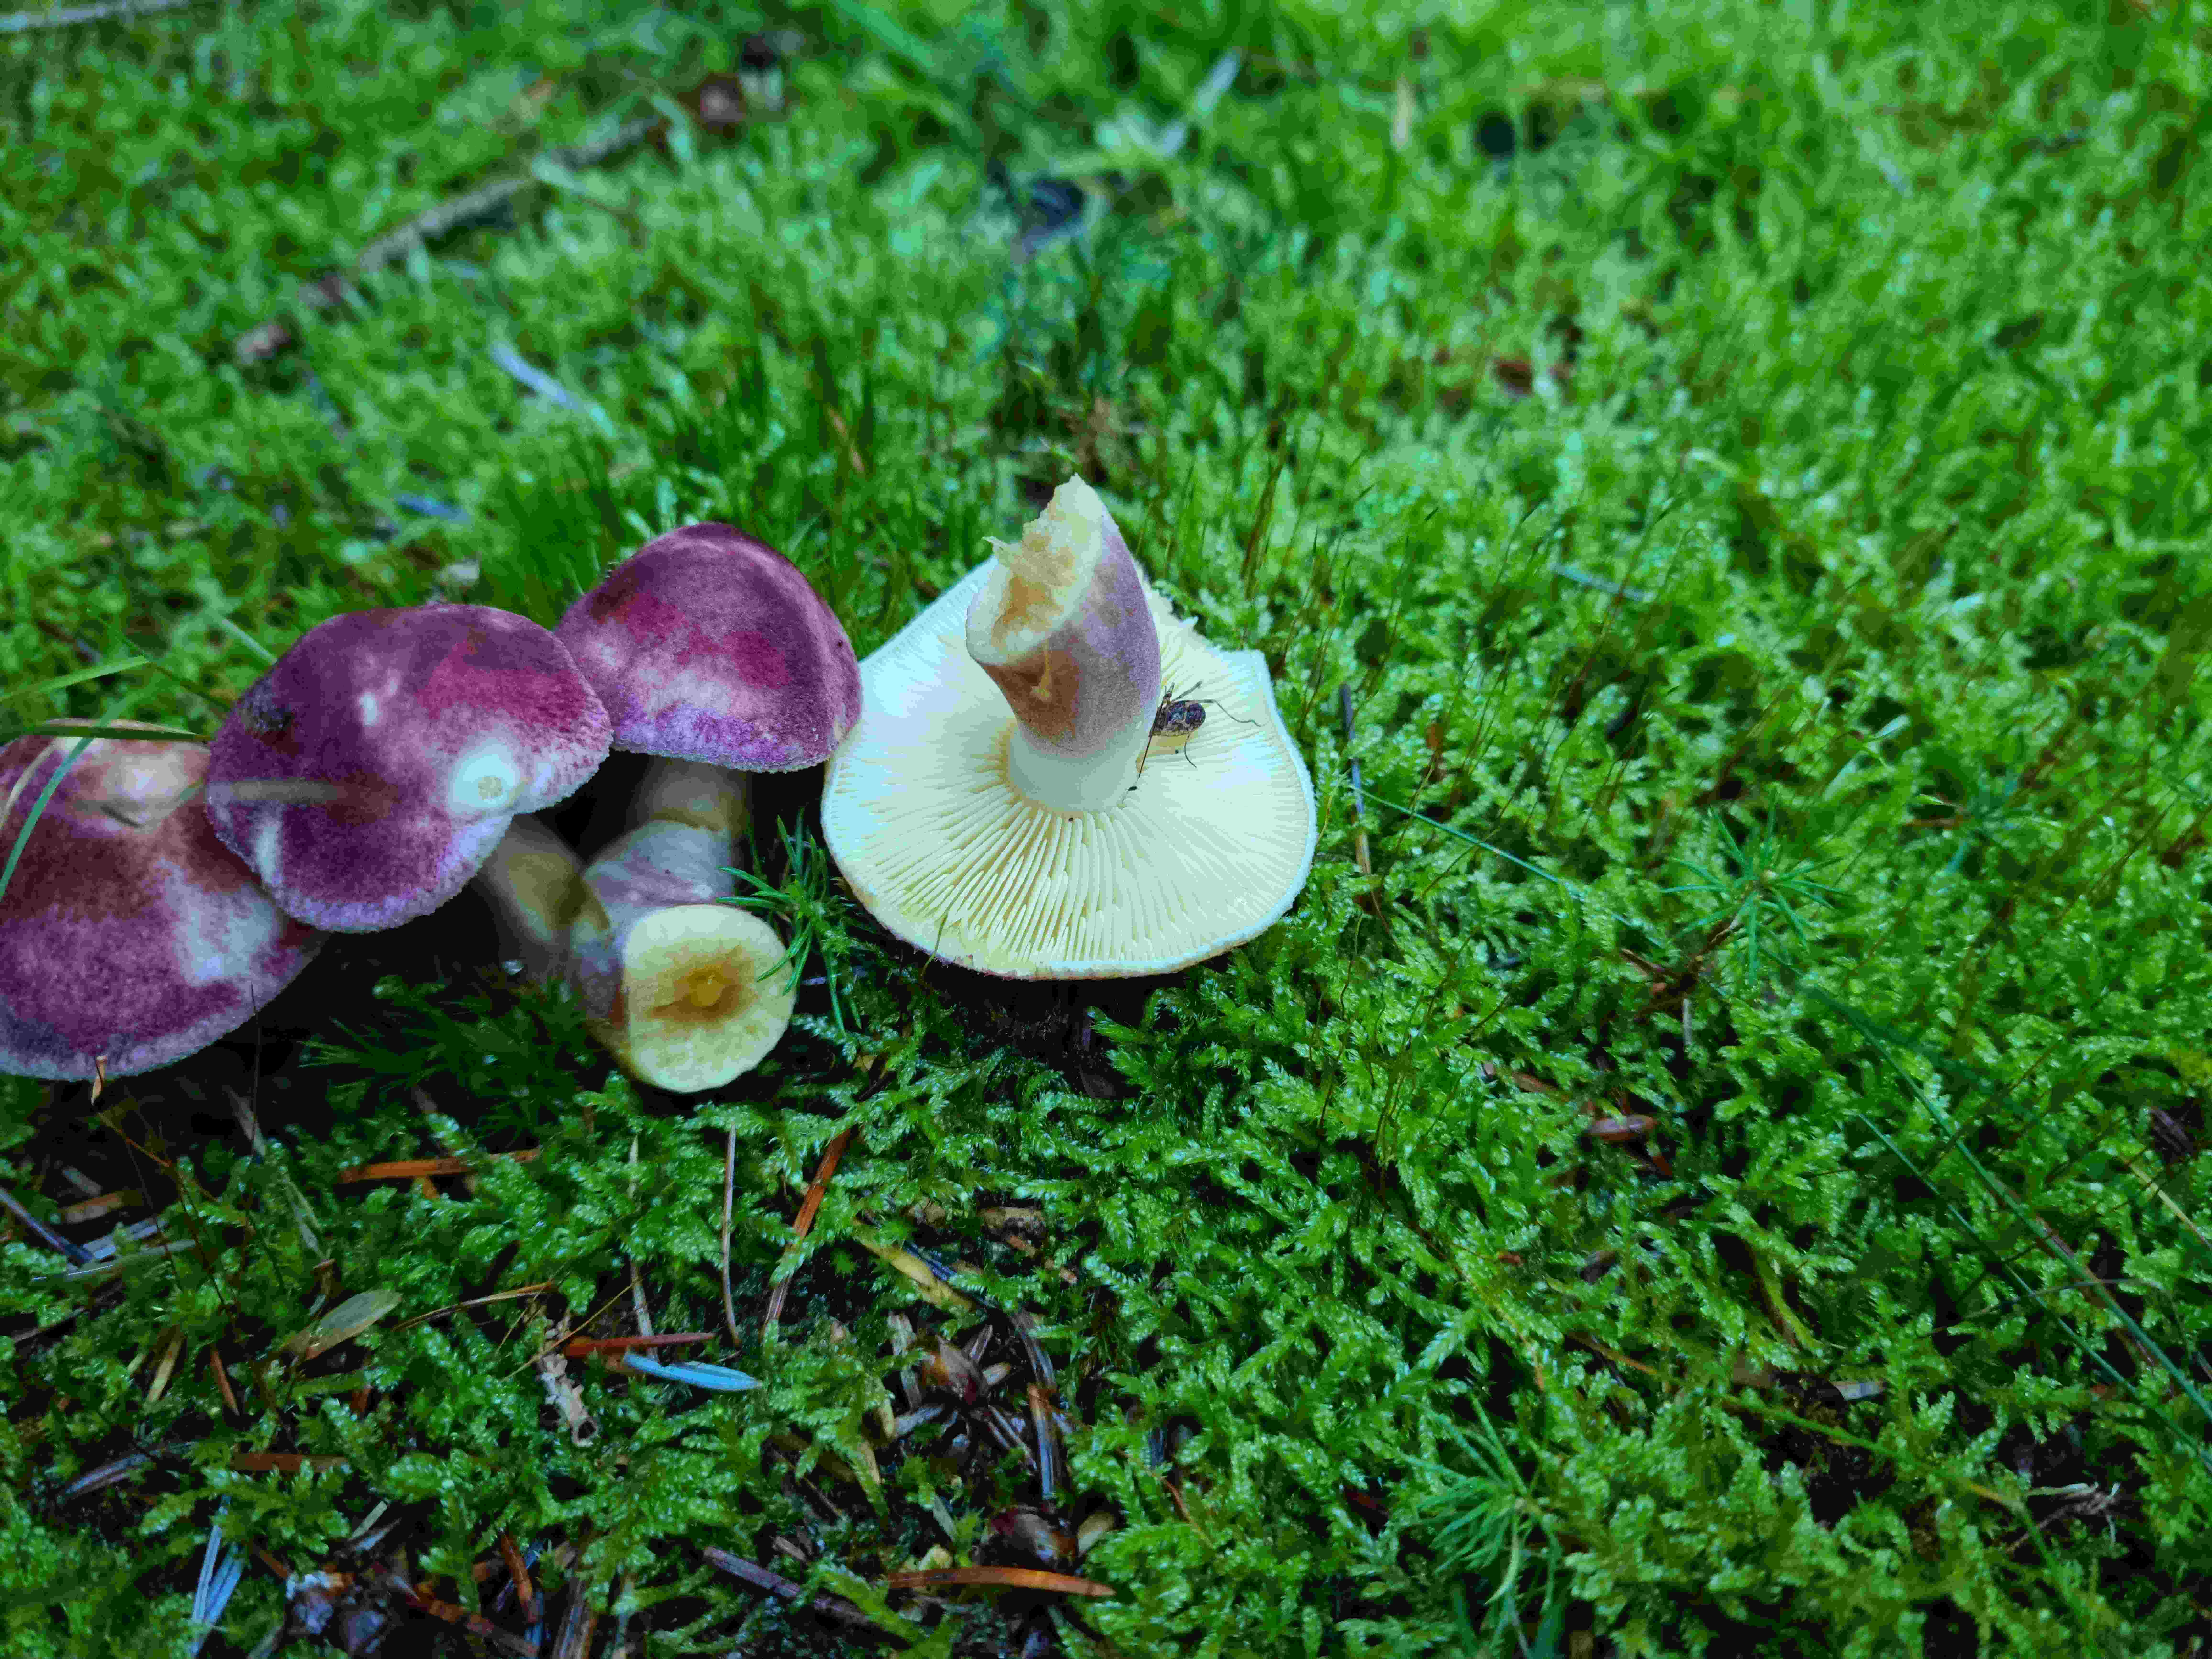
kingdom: Fungi
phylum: Basidiomycota
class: Agaricomycetes
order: Agaricales
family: Tricholomataceae
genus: Tricholomopsis
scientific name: Tricholomopsis rutilans
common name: purpur-væbnerhat
